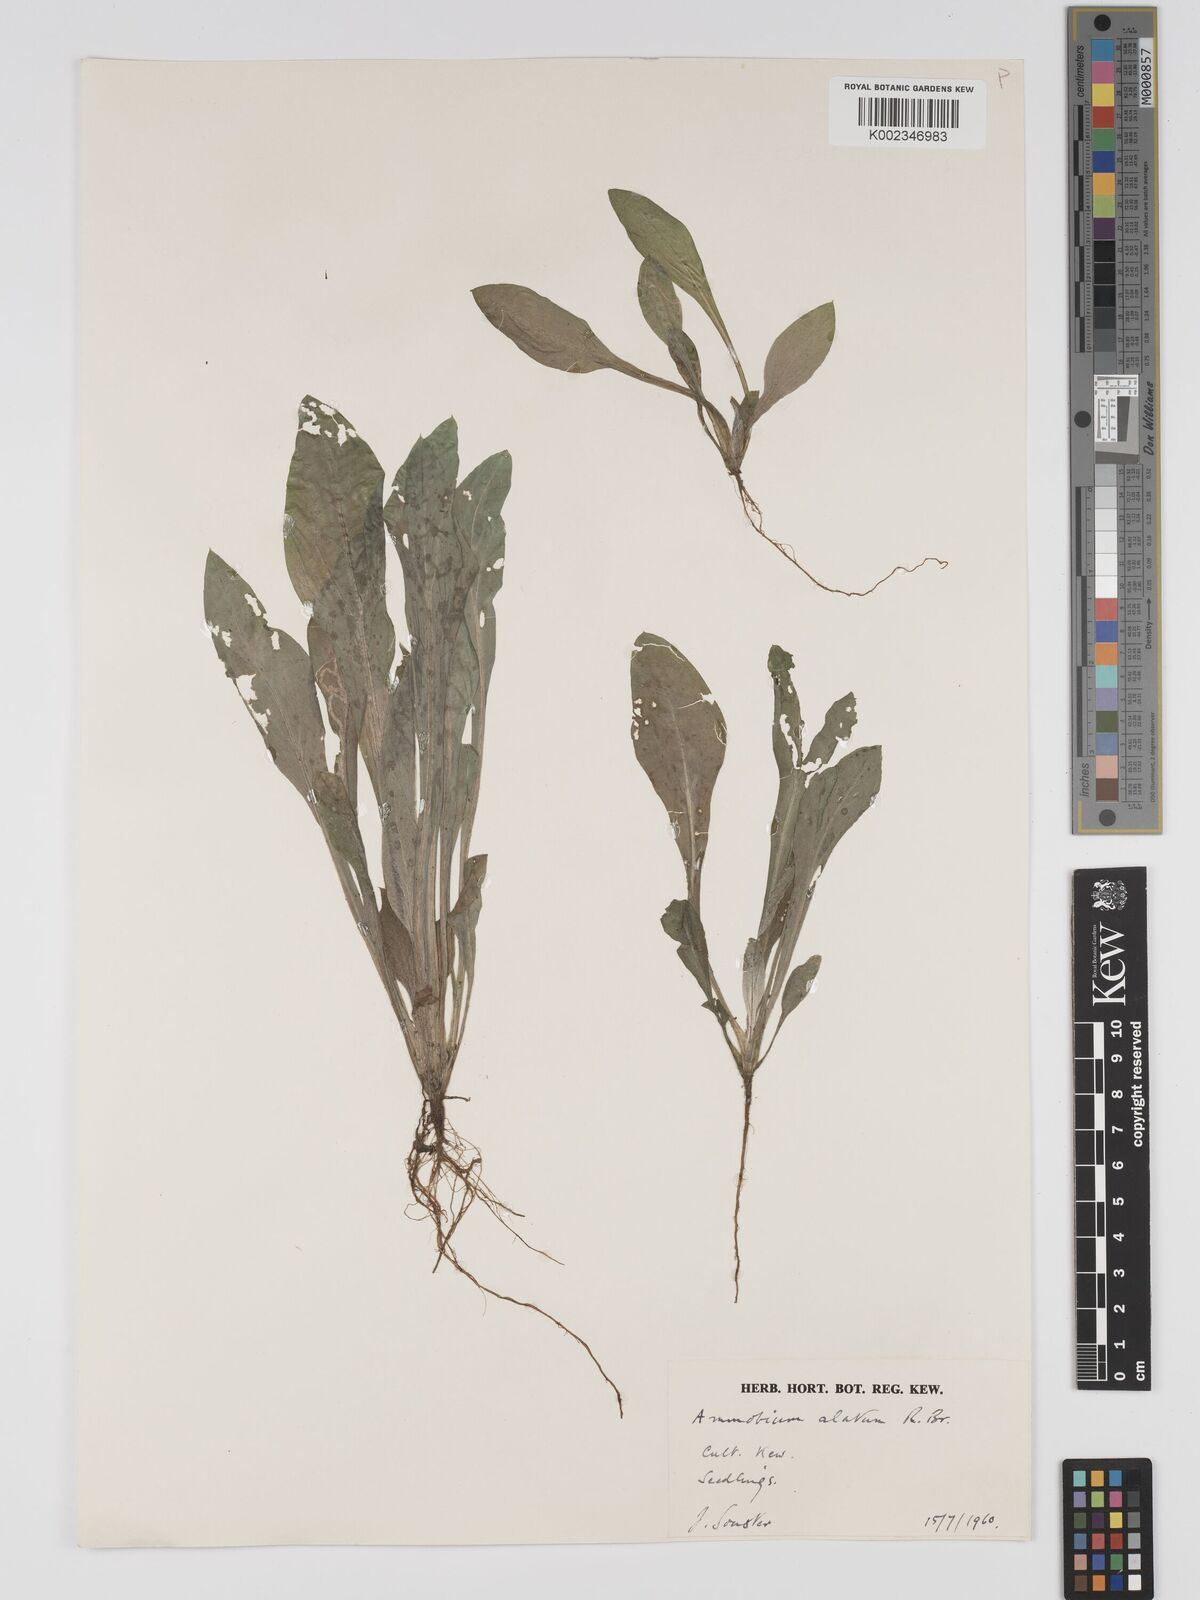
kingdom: Plantae
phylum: Tracheophyta
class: Magnoliopsida
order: Asterales
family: Asteraceae
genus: Ammobium
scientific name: Ammobium alatum
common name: Winged everlasting
